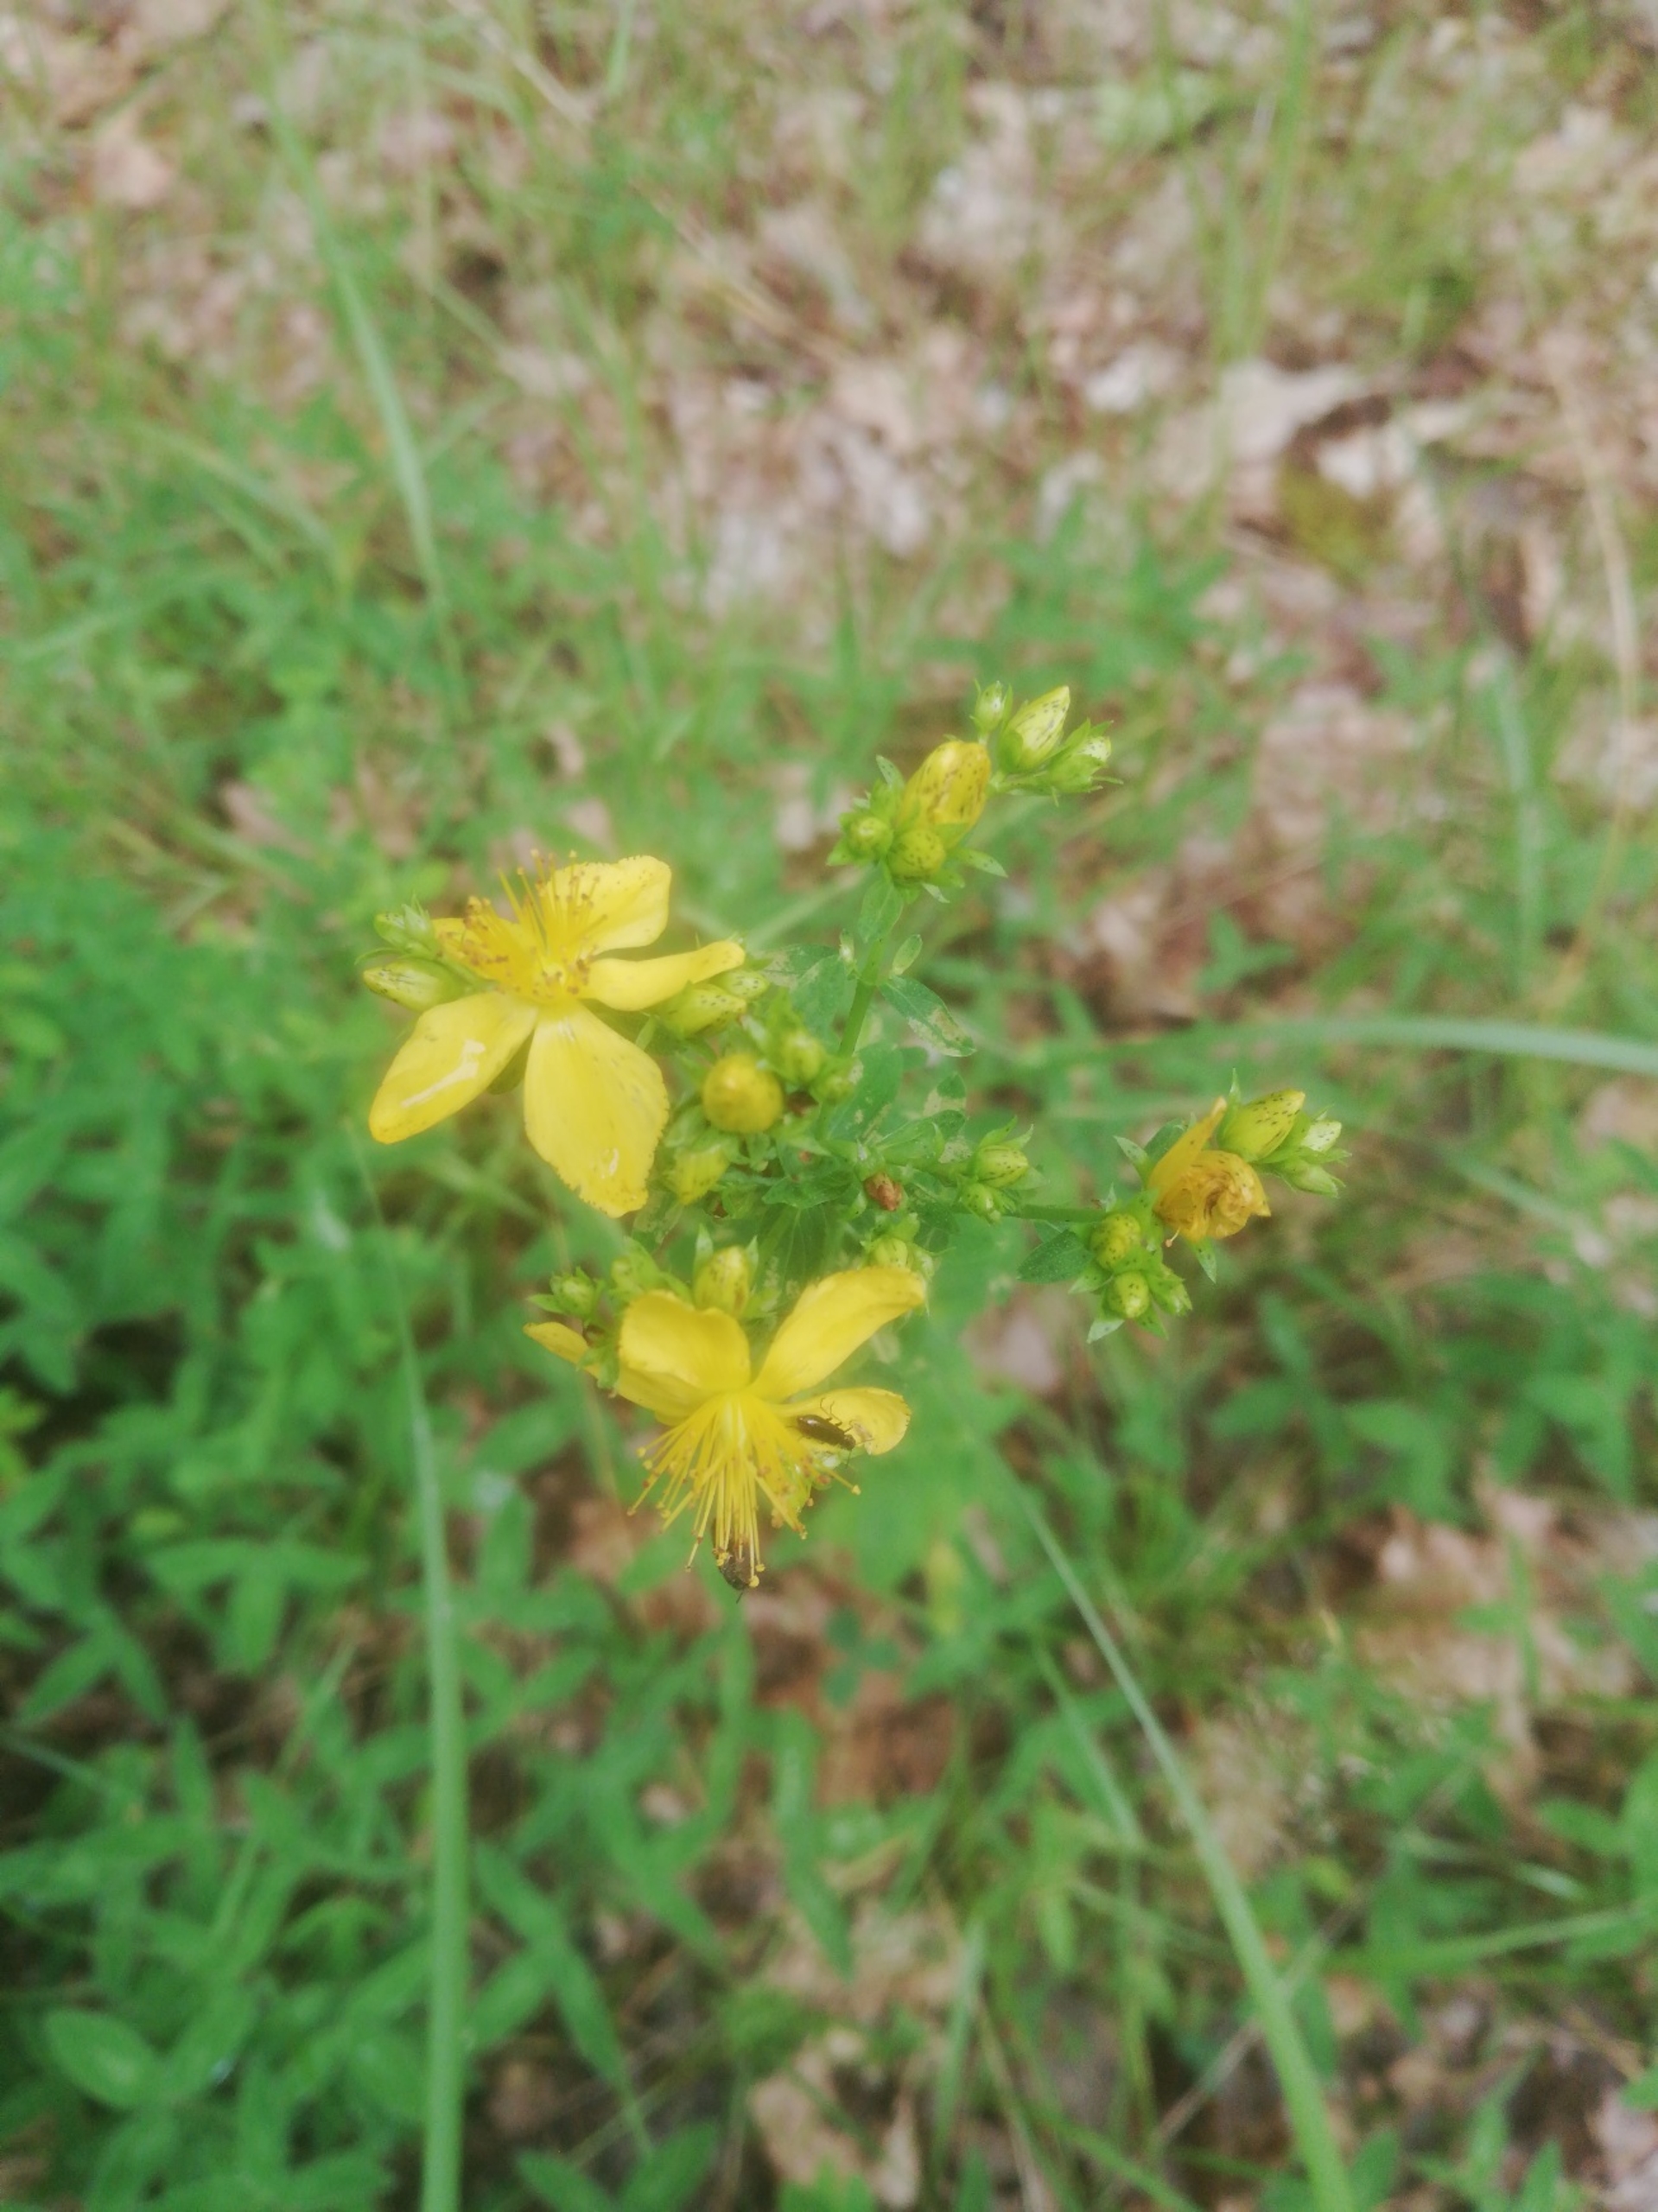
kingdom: Plantae
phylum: Tracheophyta
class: Magnoliopsida
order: Malpighiales
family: Hypericaceae
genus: Hypericum
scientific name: Hypericum perforatum
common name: Prikbladet perikon
